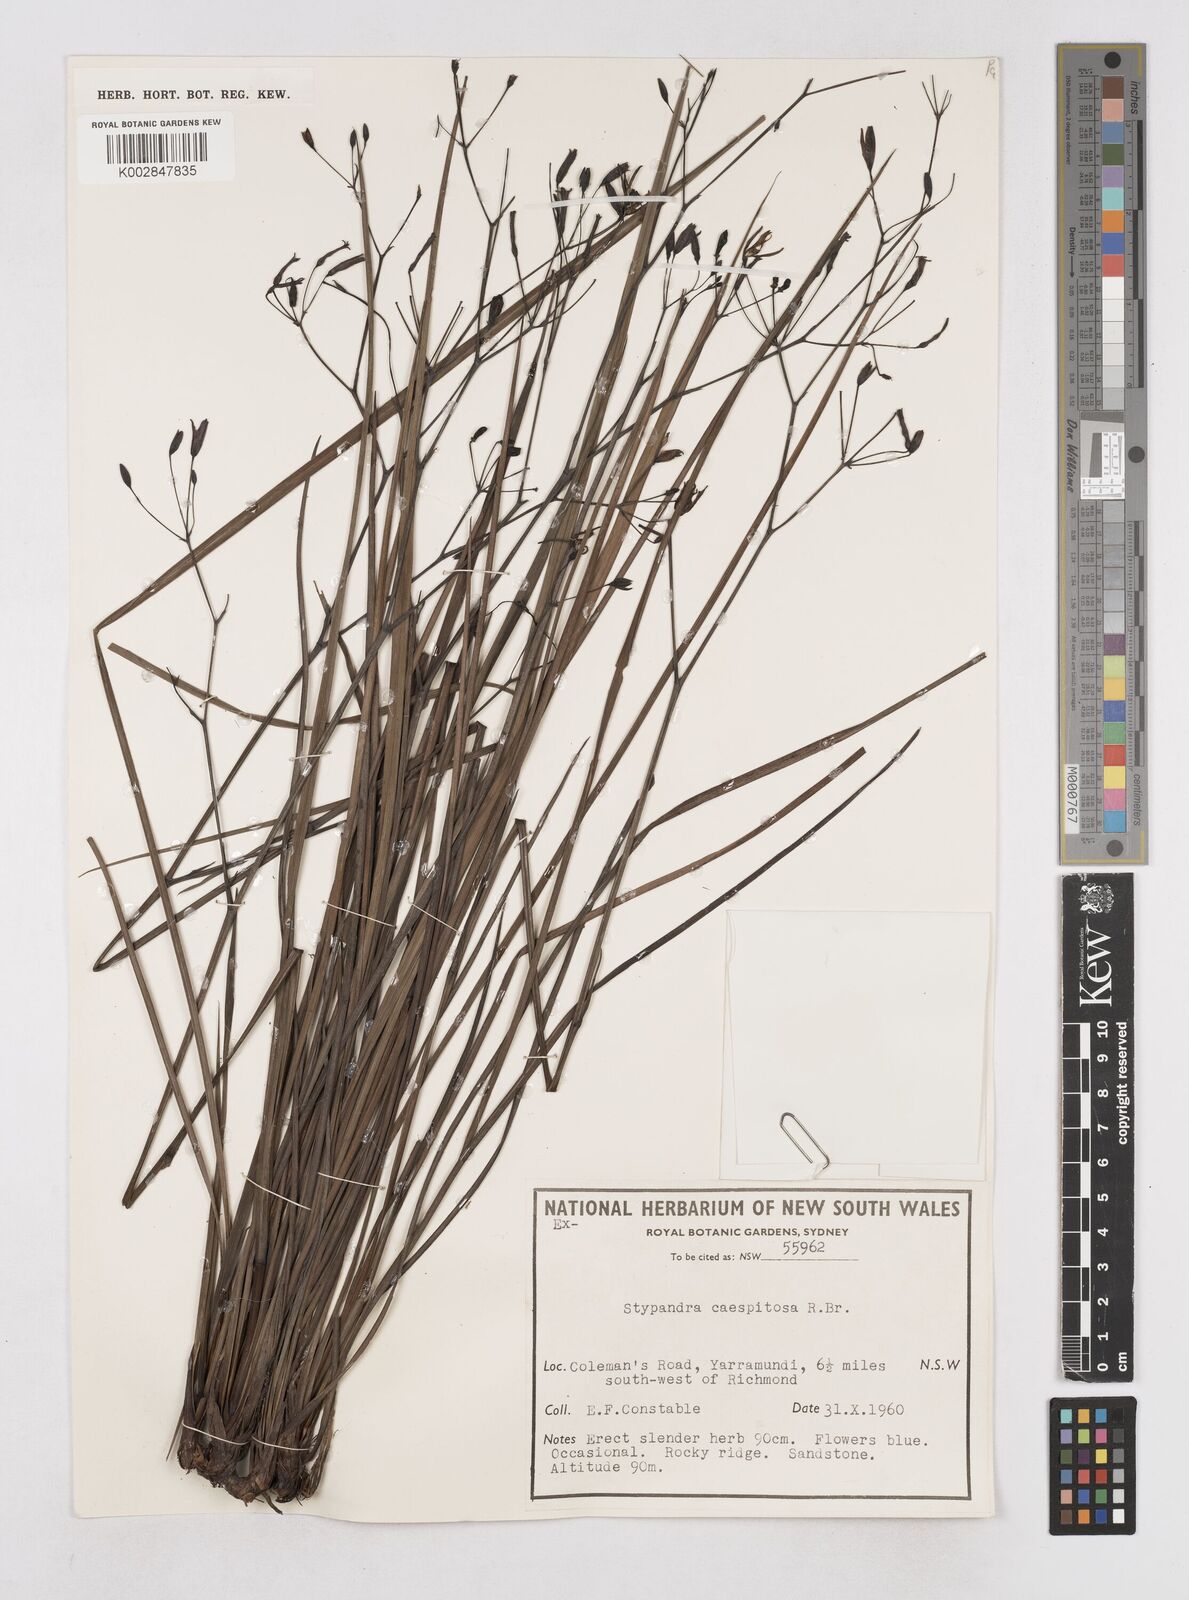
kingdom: Plantae
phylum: Tracheophyta
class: Liliopsida
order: Asparagales
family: Asphodelaceae
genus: Thelionema
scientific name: Thelionema caespitosum
